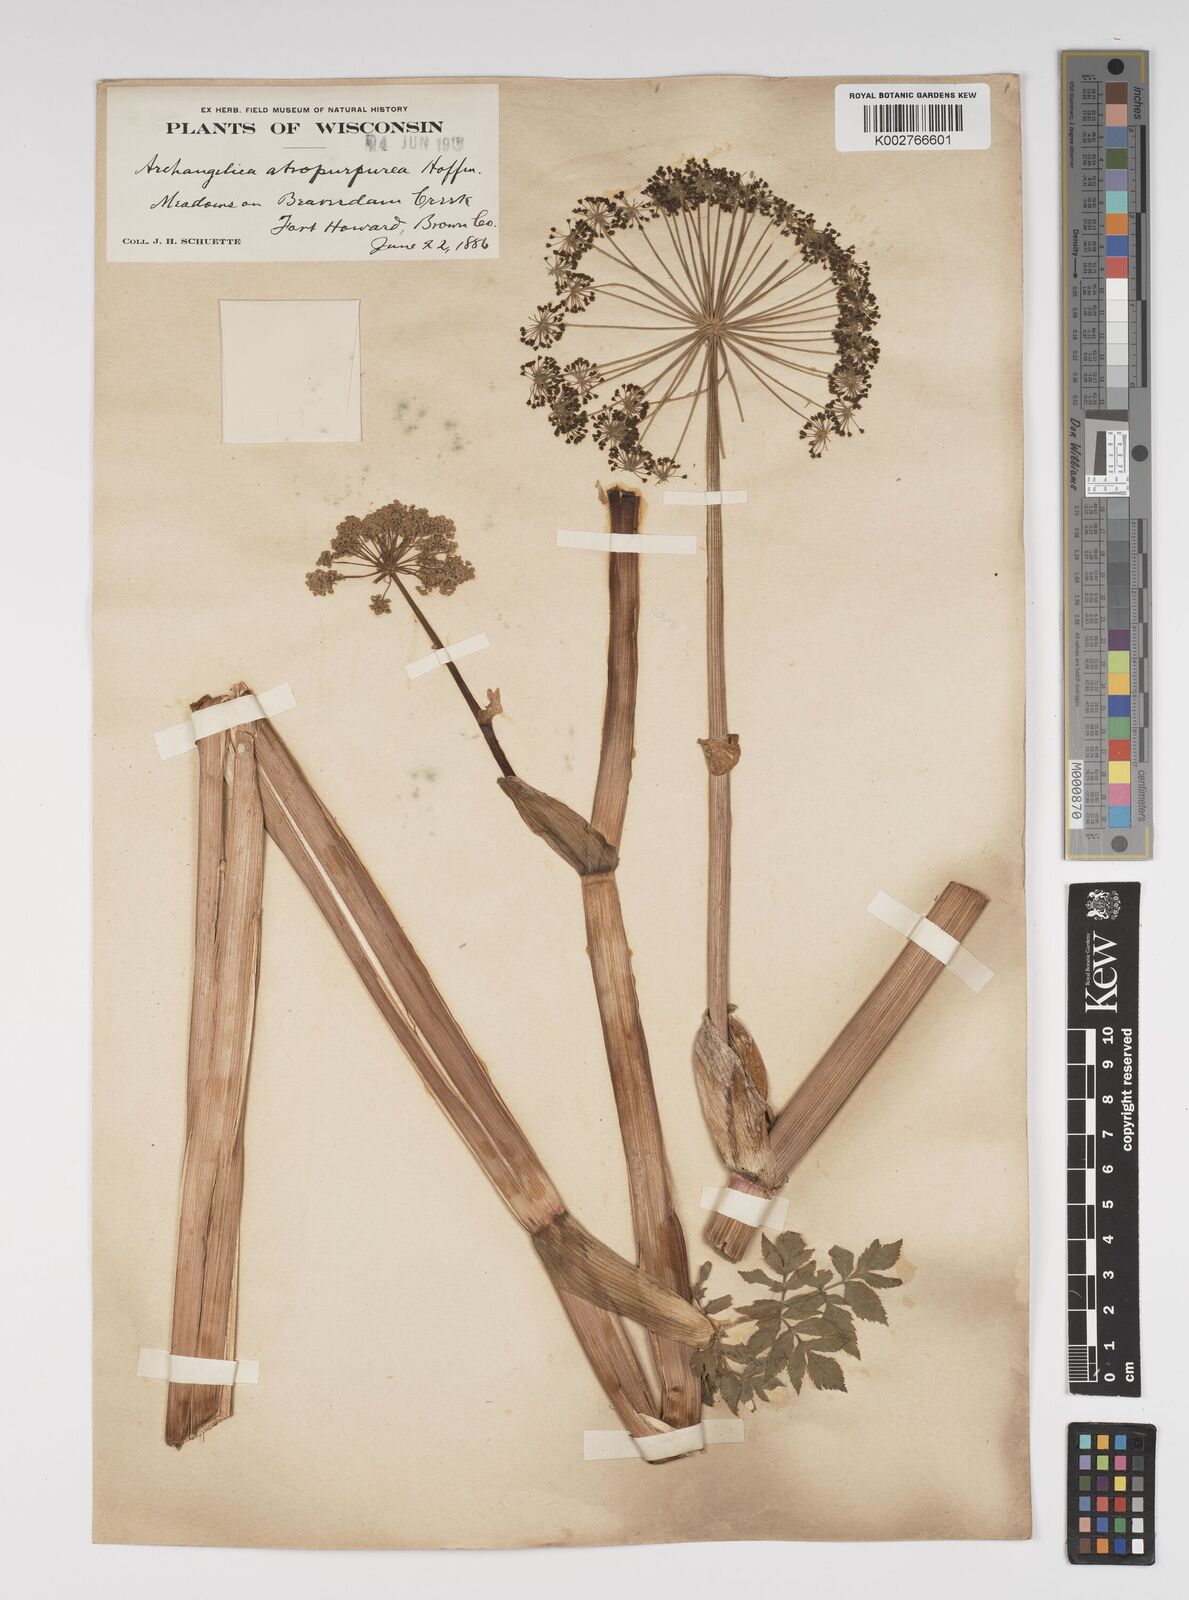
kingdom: Plantae
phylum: Tracheophyta
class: Magnoliopsida
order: Apiales
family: Apiaceae
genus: Angelica
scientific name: Angelica atropurpurea
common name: Great angelica
